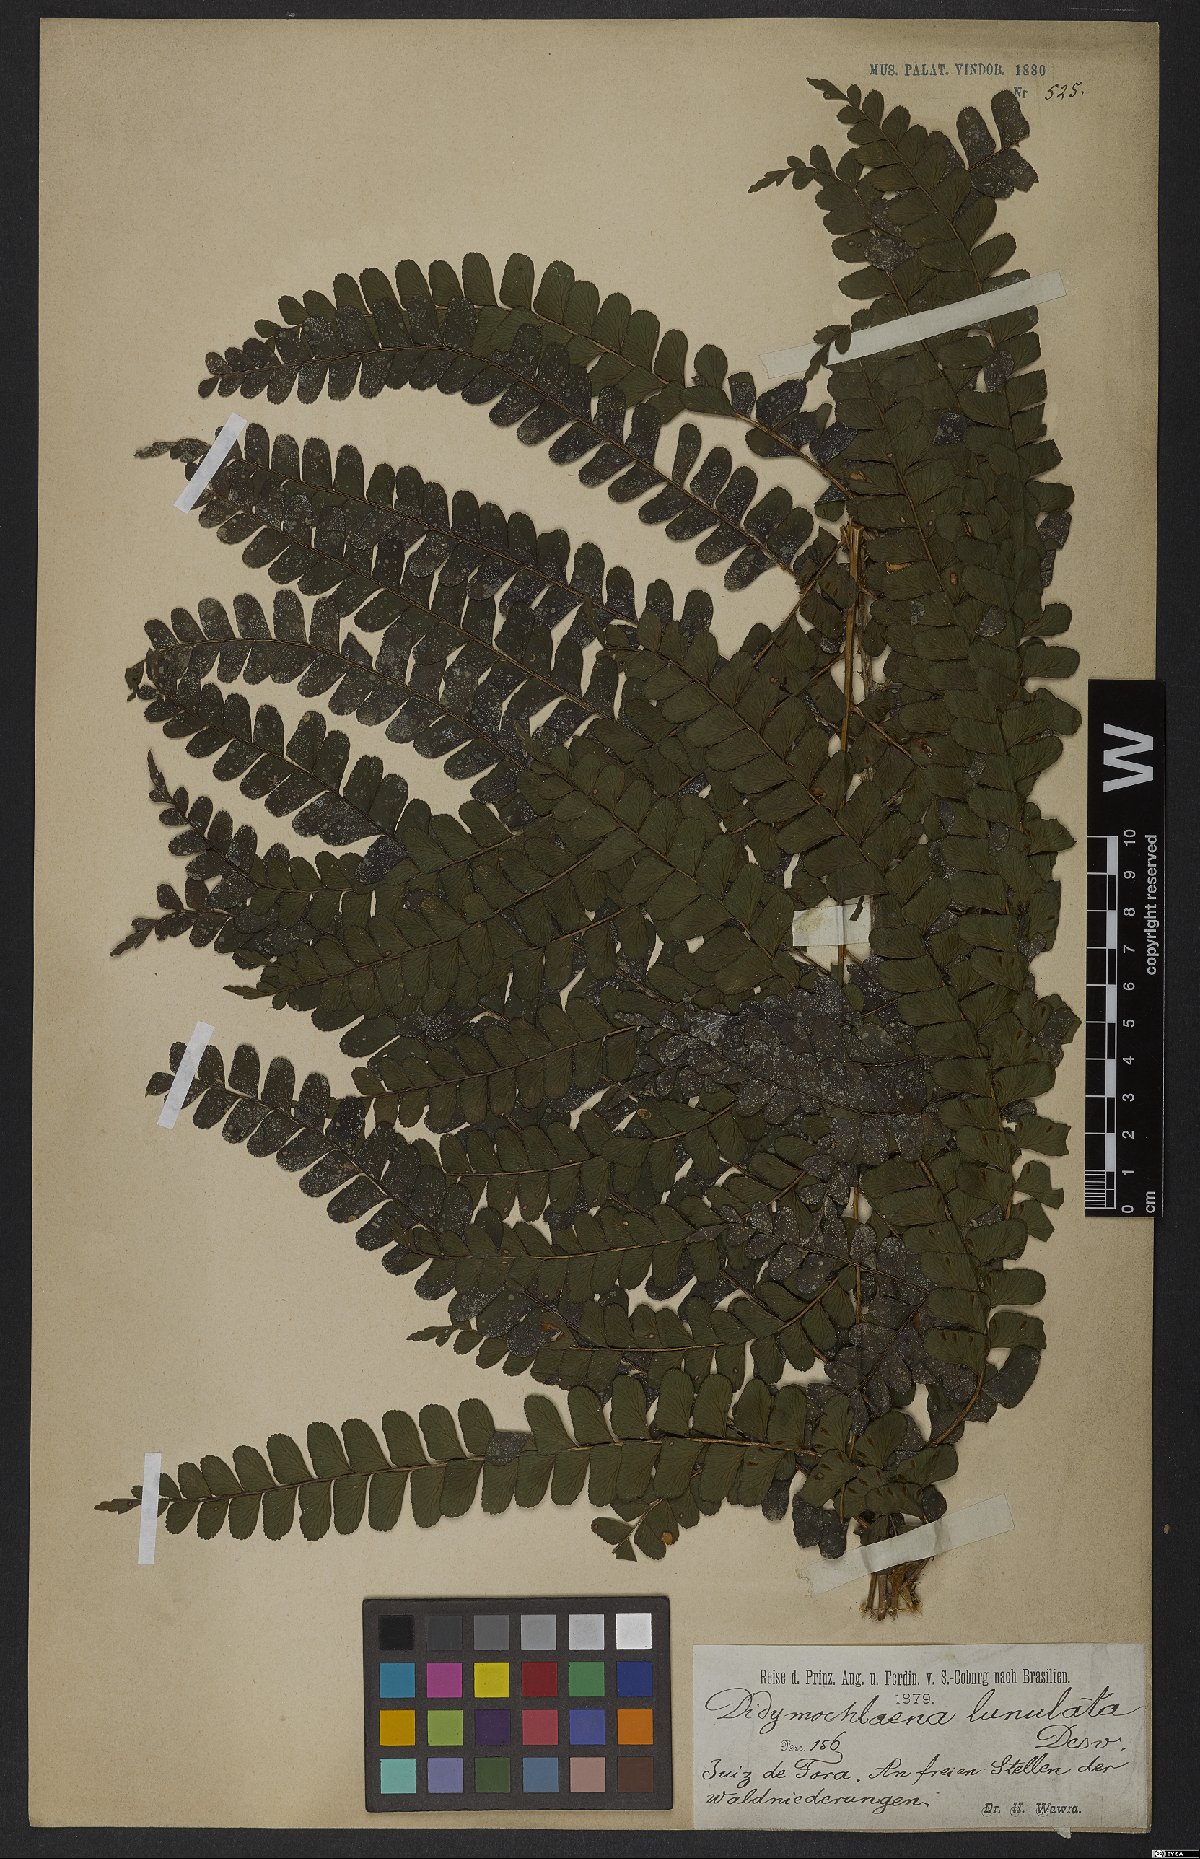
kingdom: Plantae
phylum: Tracheophyta
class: Polypodiopsida
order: Polypodiales
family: Didymochlaenaceae
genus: Didymochlaena
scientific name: Didymochlaena truncatula
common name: Mahogany fern
